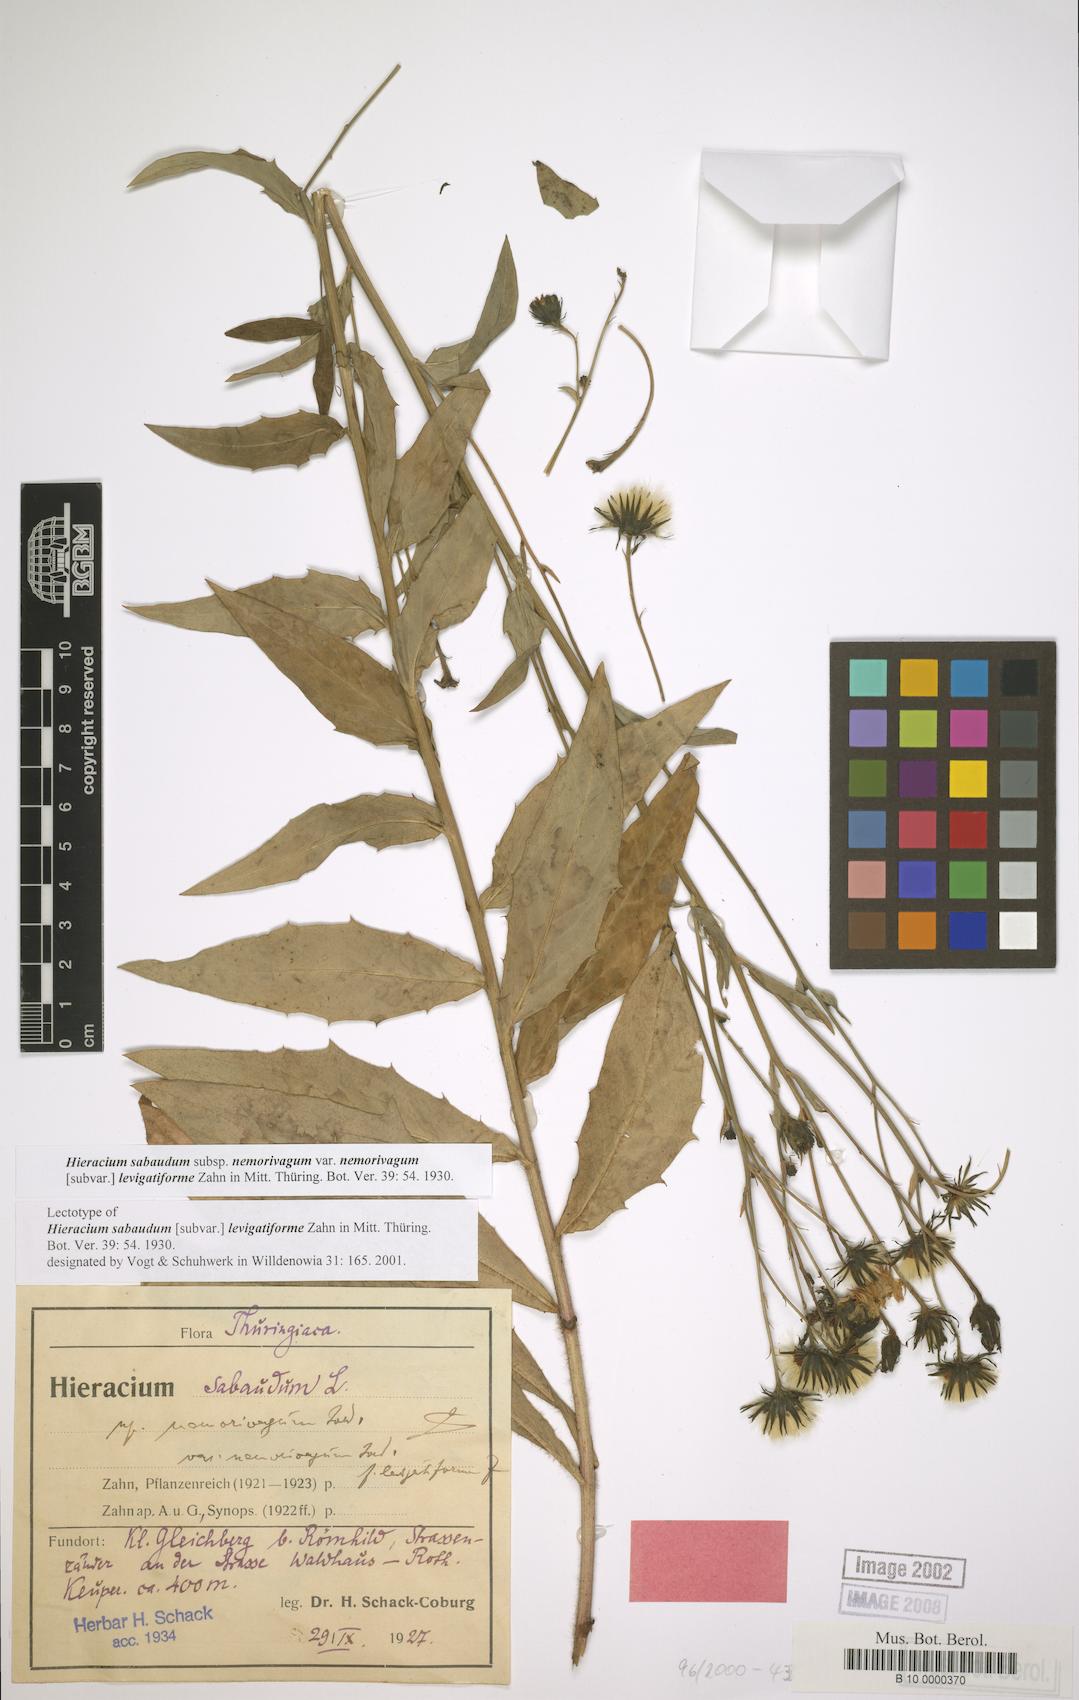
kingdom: Plantae
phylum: Tracheophyta
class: Magnoliopsida
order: Asterales
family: Asteraceae
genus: Hieracium
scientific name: Hieracium sabaudum
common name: New england hawkweed
